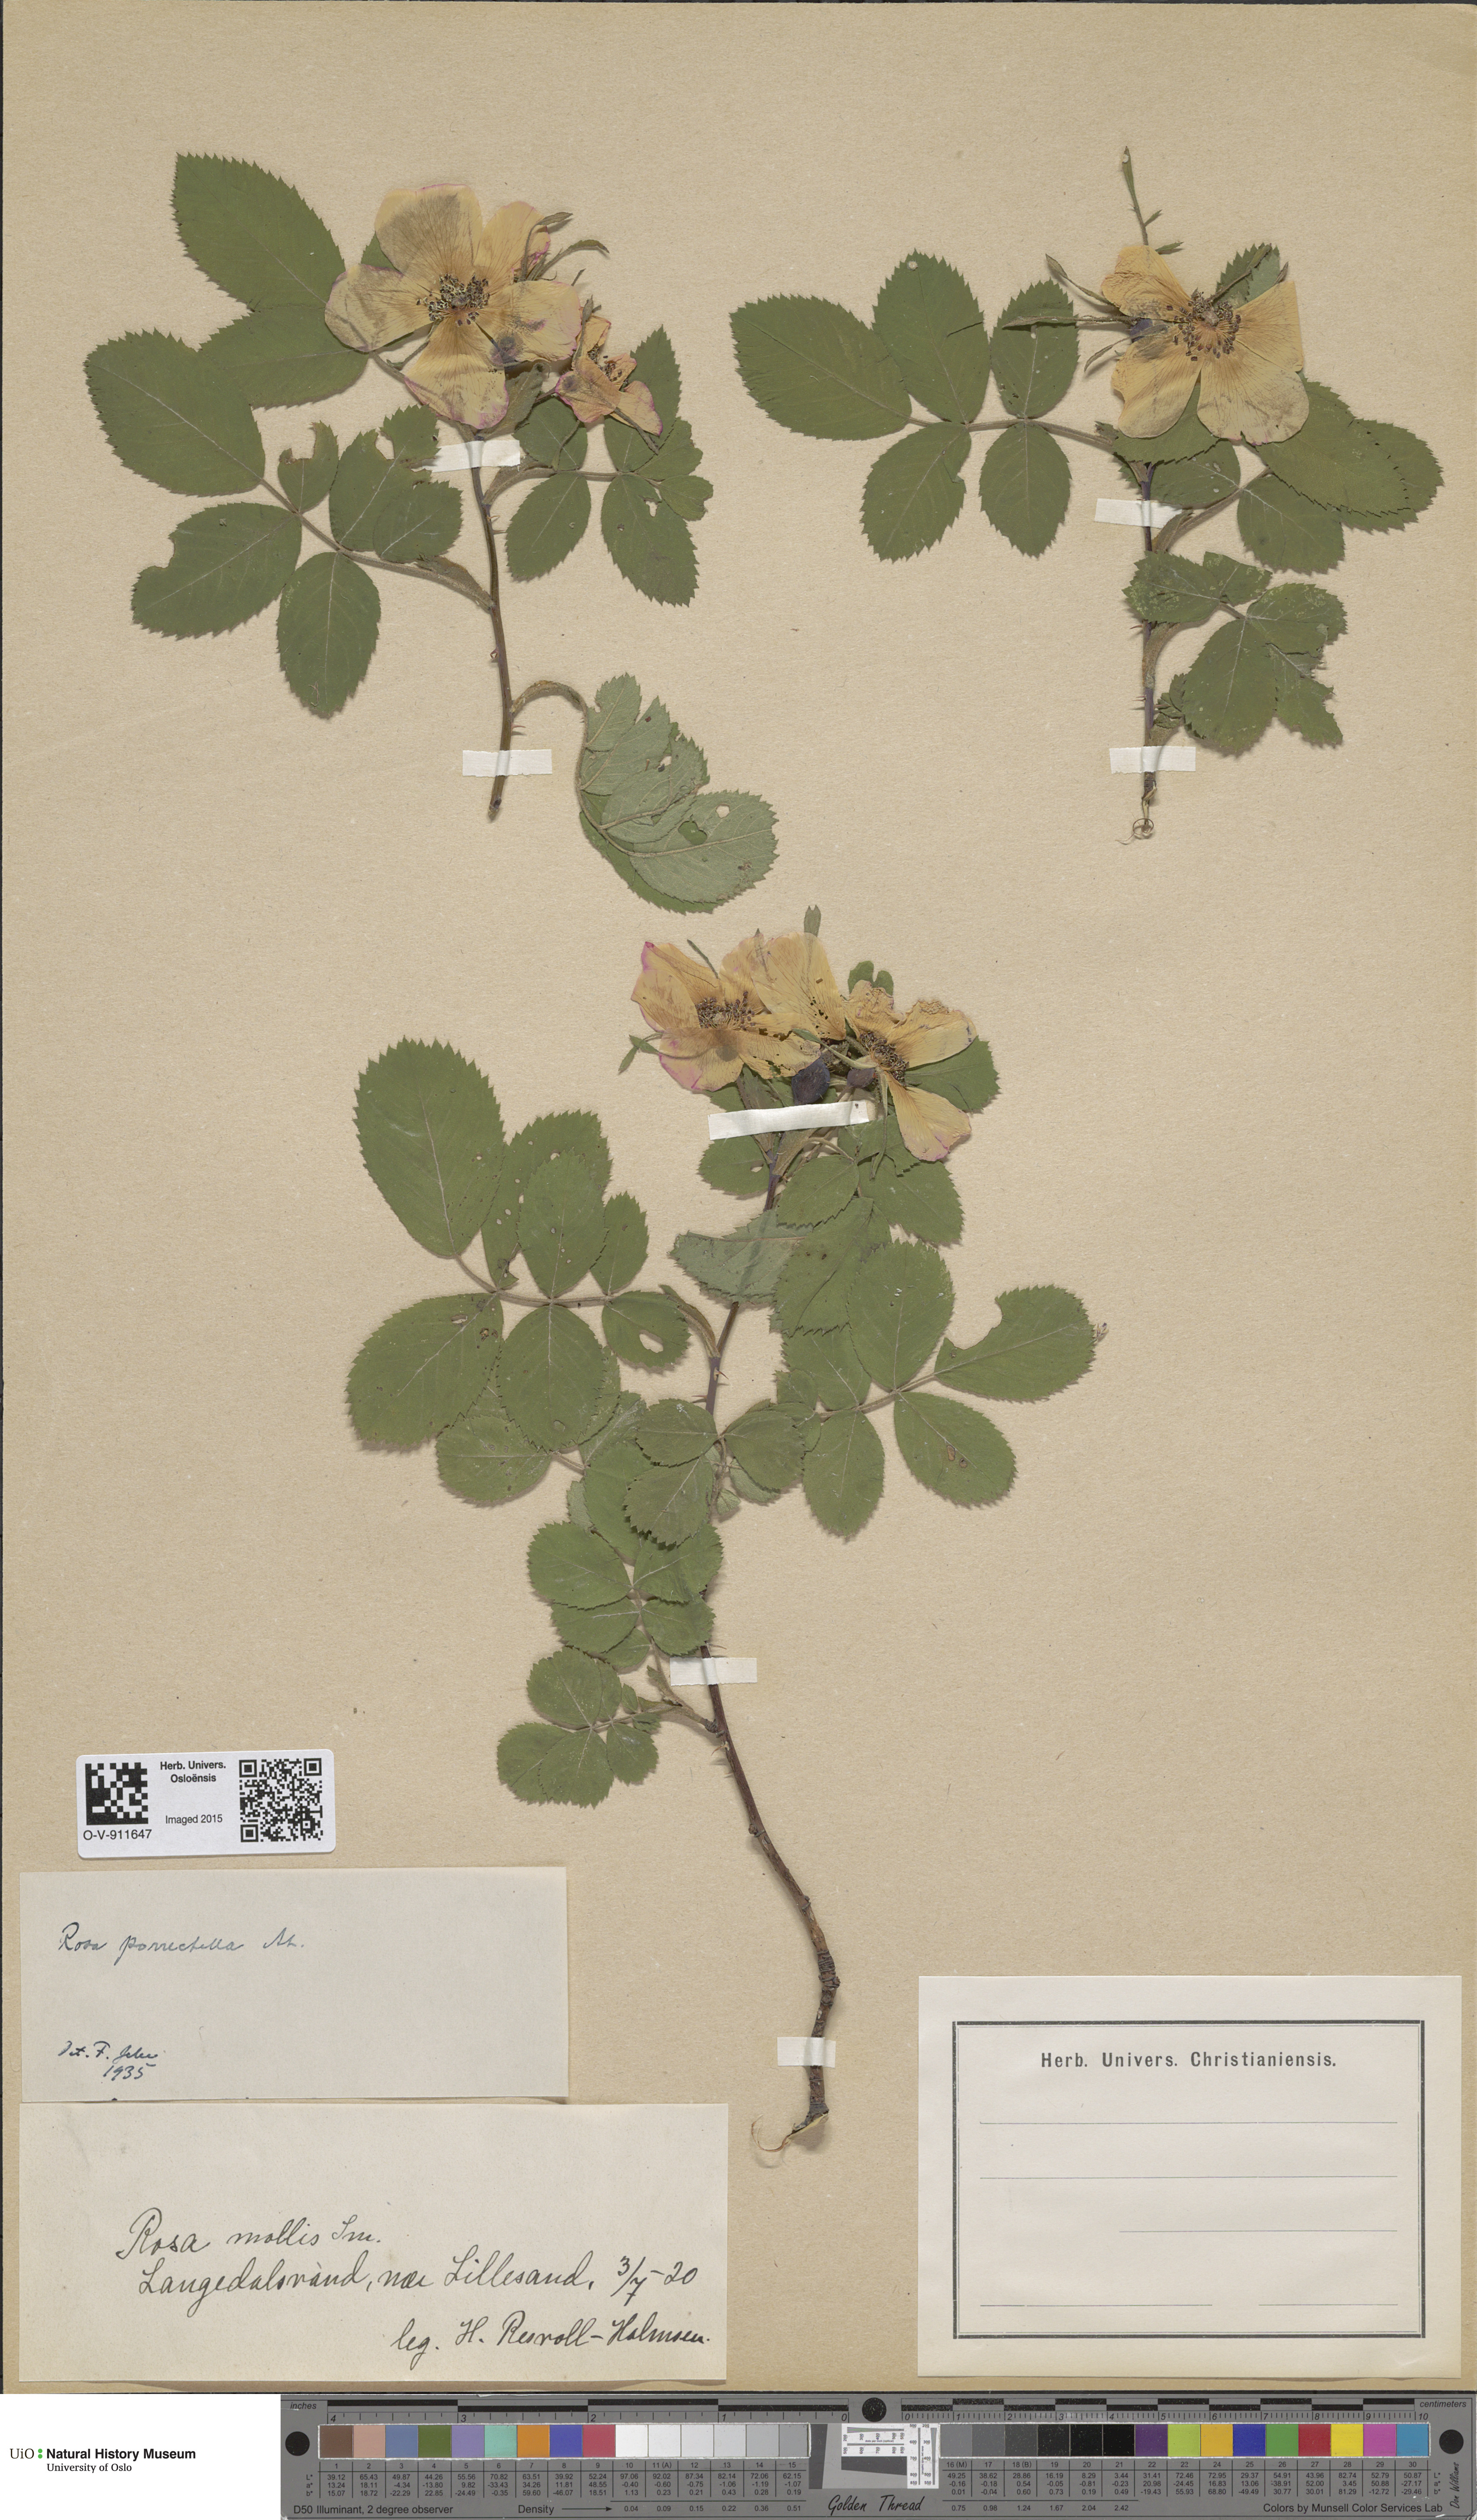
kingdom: Plantae
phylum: Tracheophyta
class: Magnoliopsida
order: Rosales
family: Rosaceae
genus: Rosa
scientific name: Rosa mollis
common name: Rose
